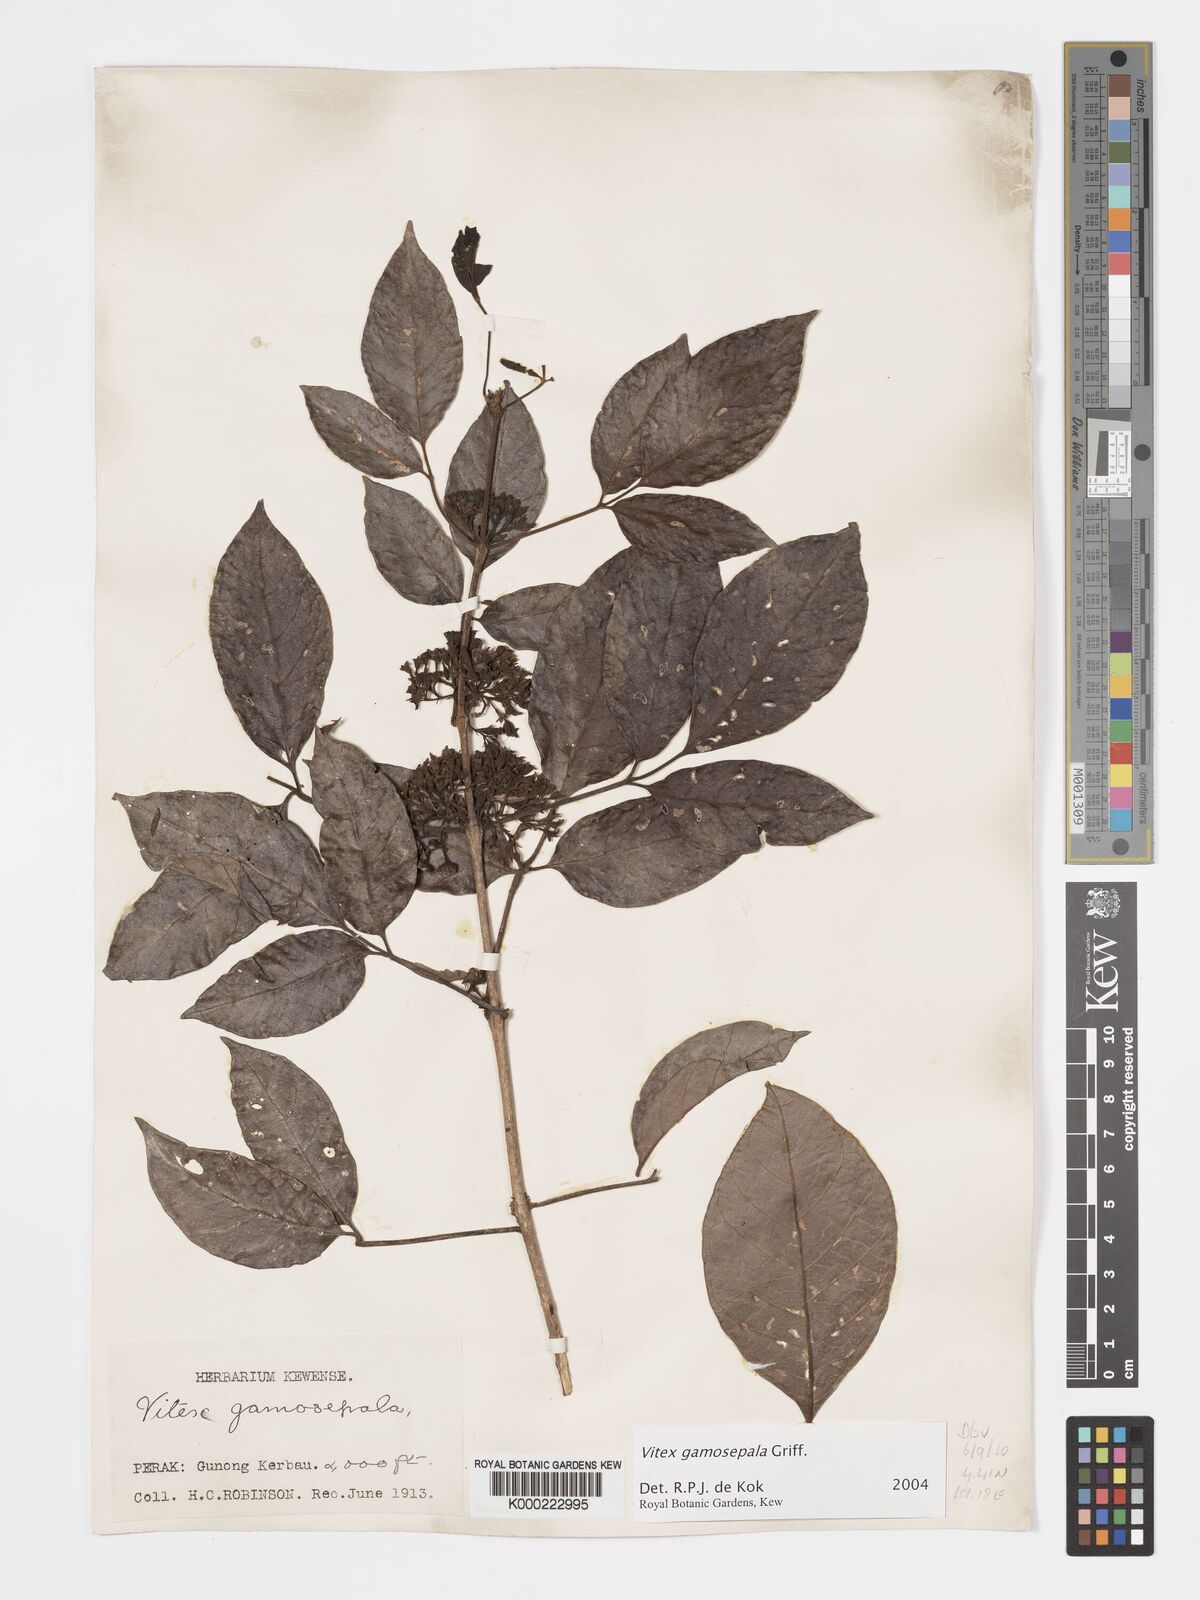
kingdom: Plantae
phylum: Tracheophyta
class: Magnoliopsida
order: Lamiales
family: Lamiaceae
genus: Vitex
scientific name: Vitex gamosepala
